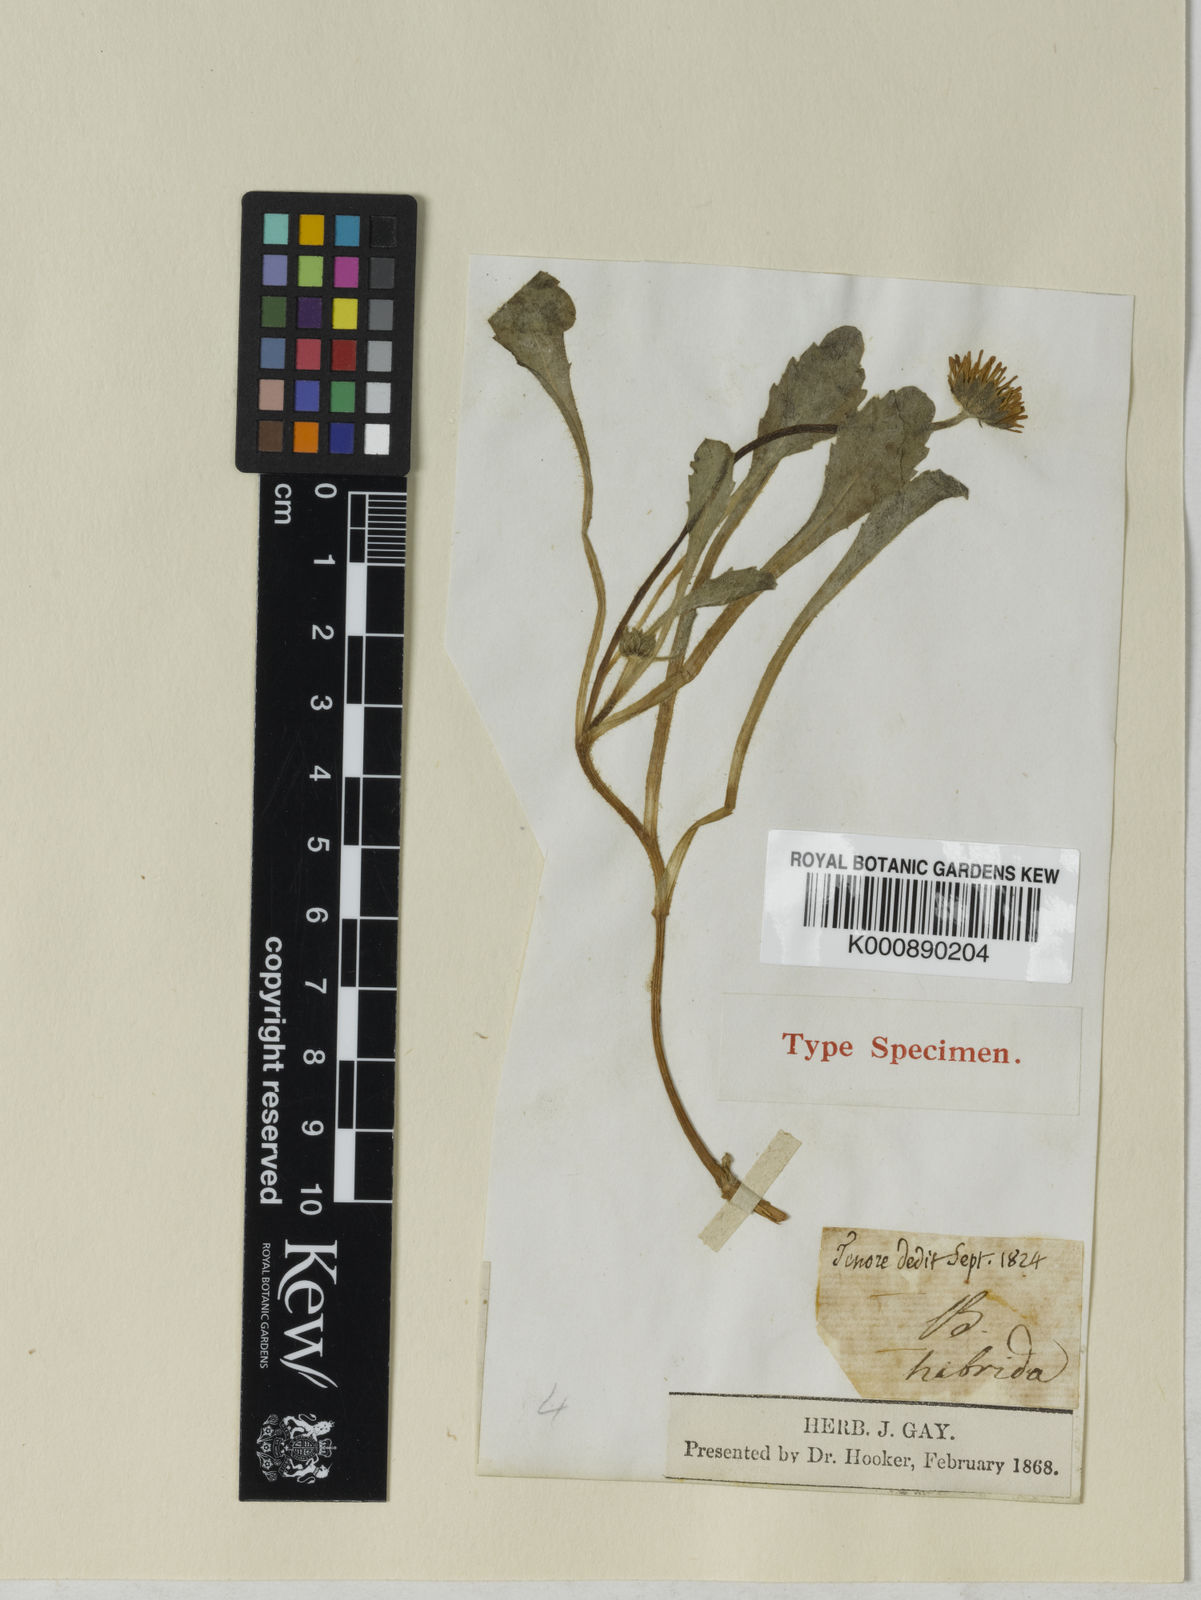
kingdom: Plantae
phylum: Tracheophyta
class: Magnoliopsida
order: Asterales
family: Asteraceae
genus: Bellis
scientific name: Bellis perennis
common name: Lawndaisy
